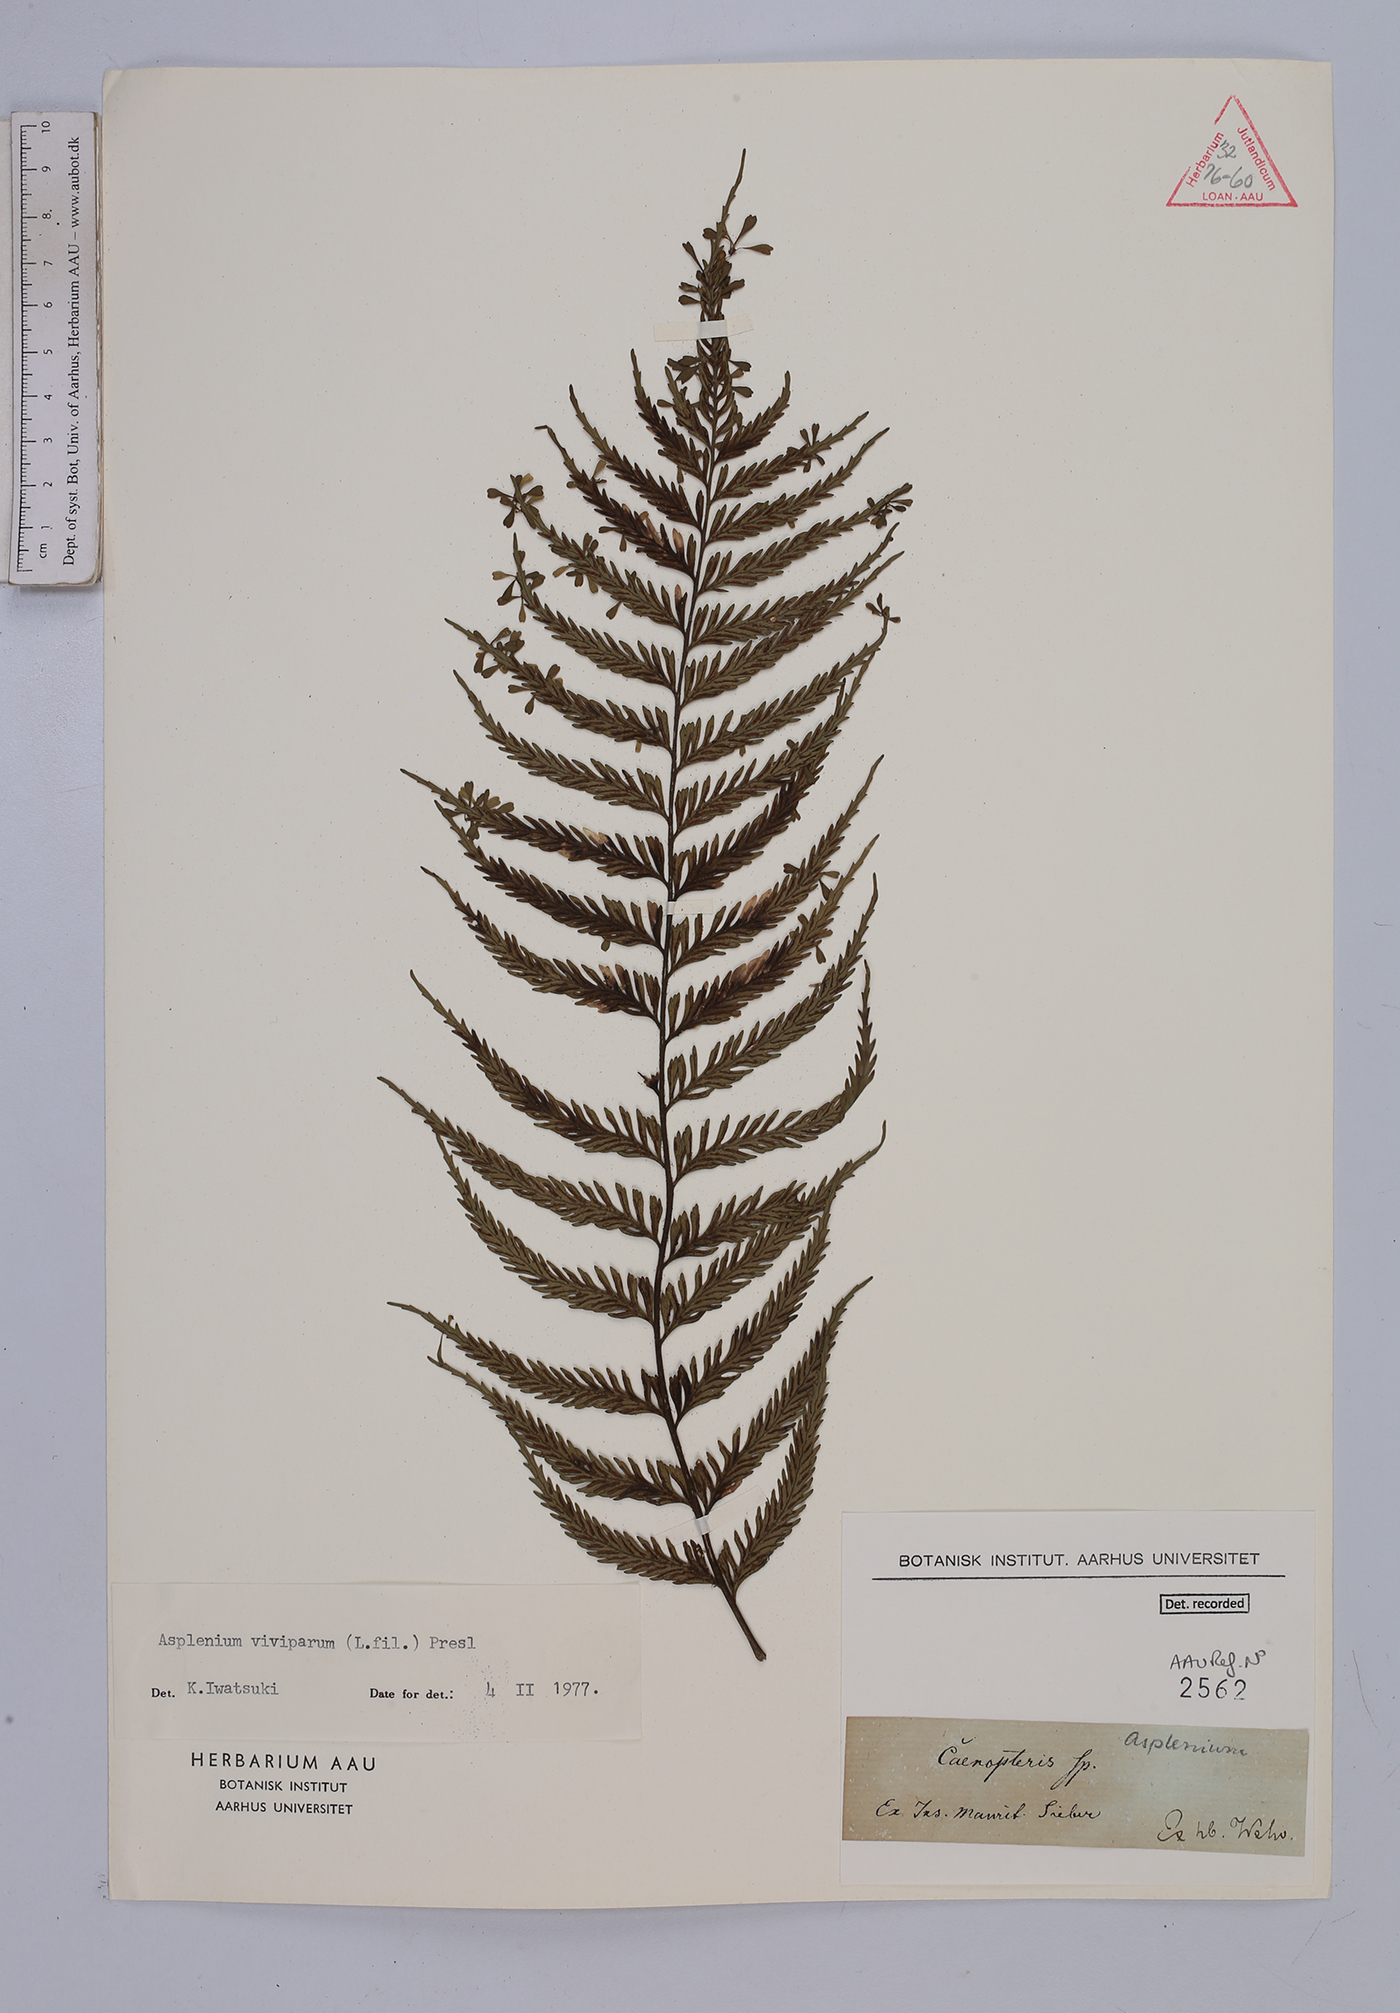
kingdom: Plantae
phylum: Tracheophyta
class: Polypodiopsida
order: Polypodiales
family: Aspleniaceae
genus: Asplenium
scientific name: Asplenium viviparioides
